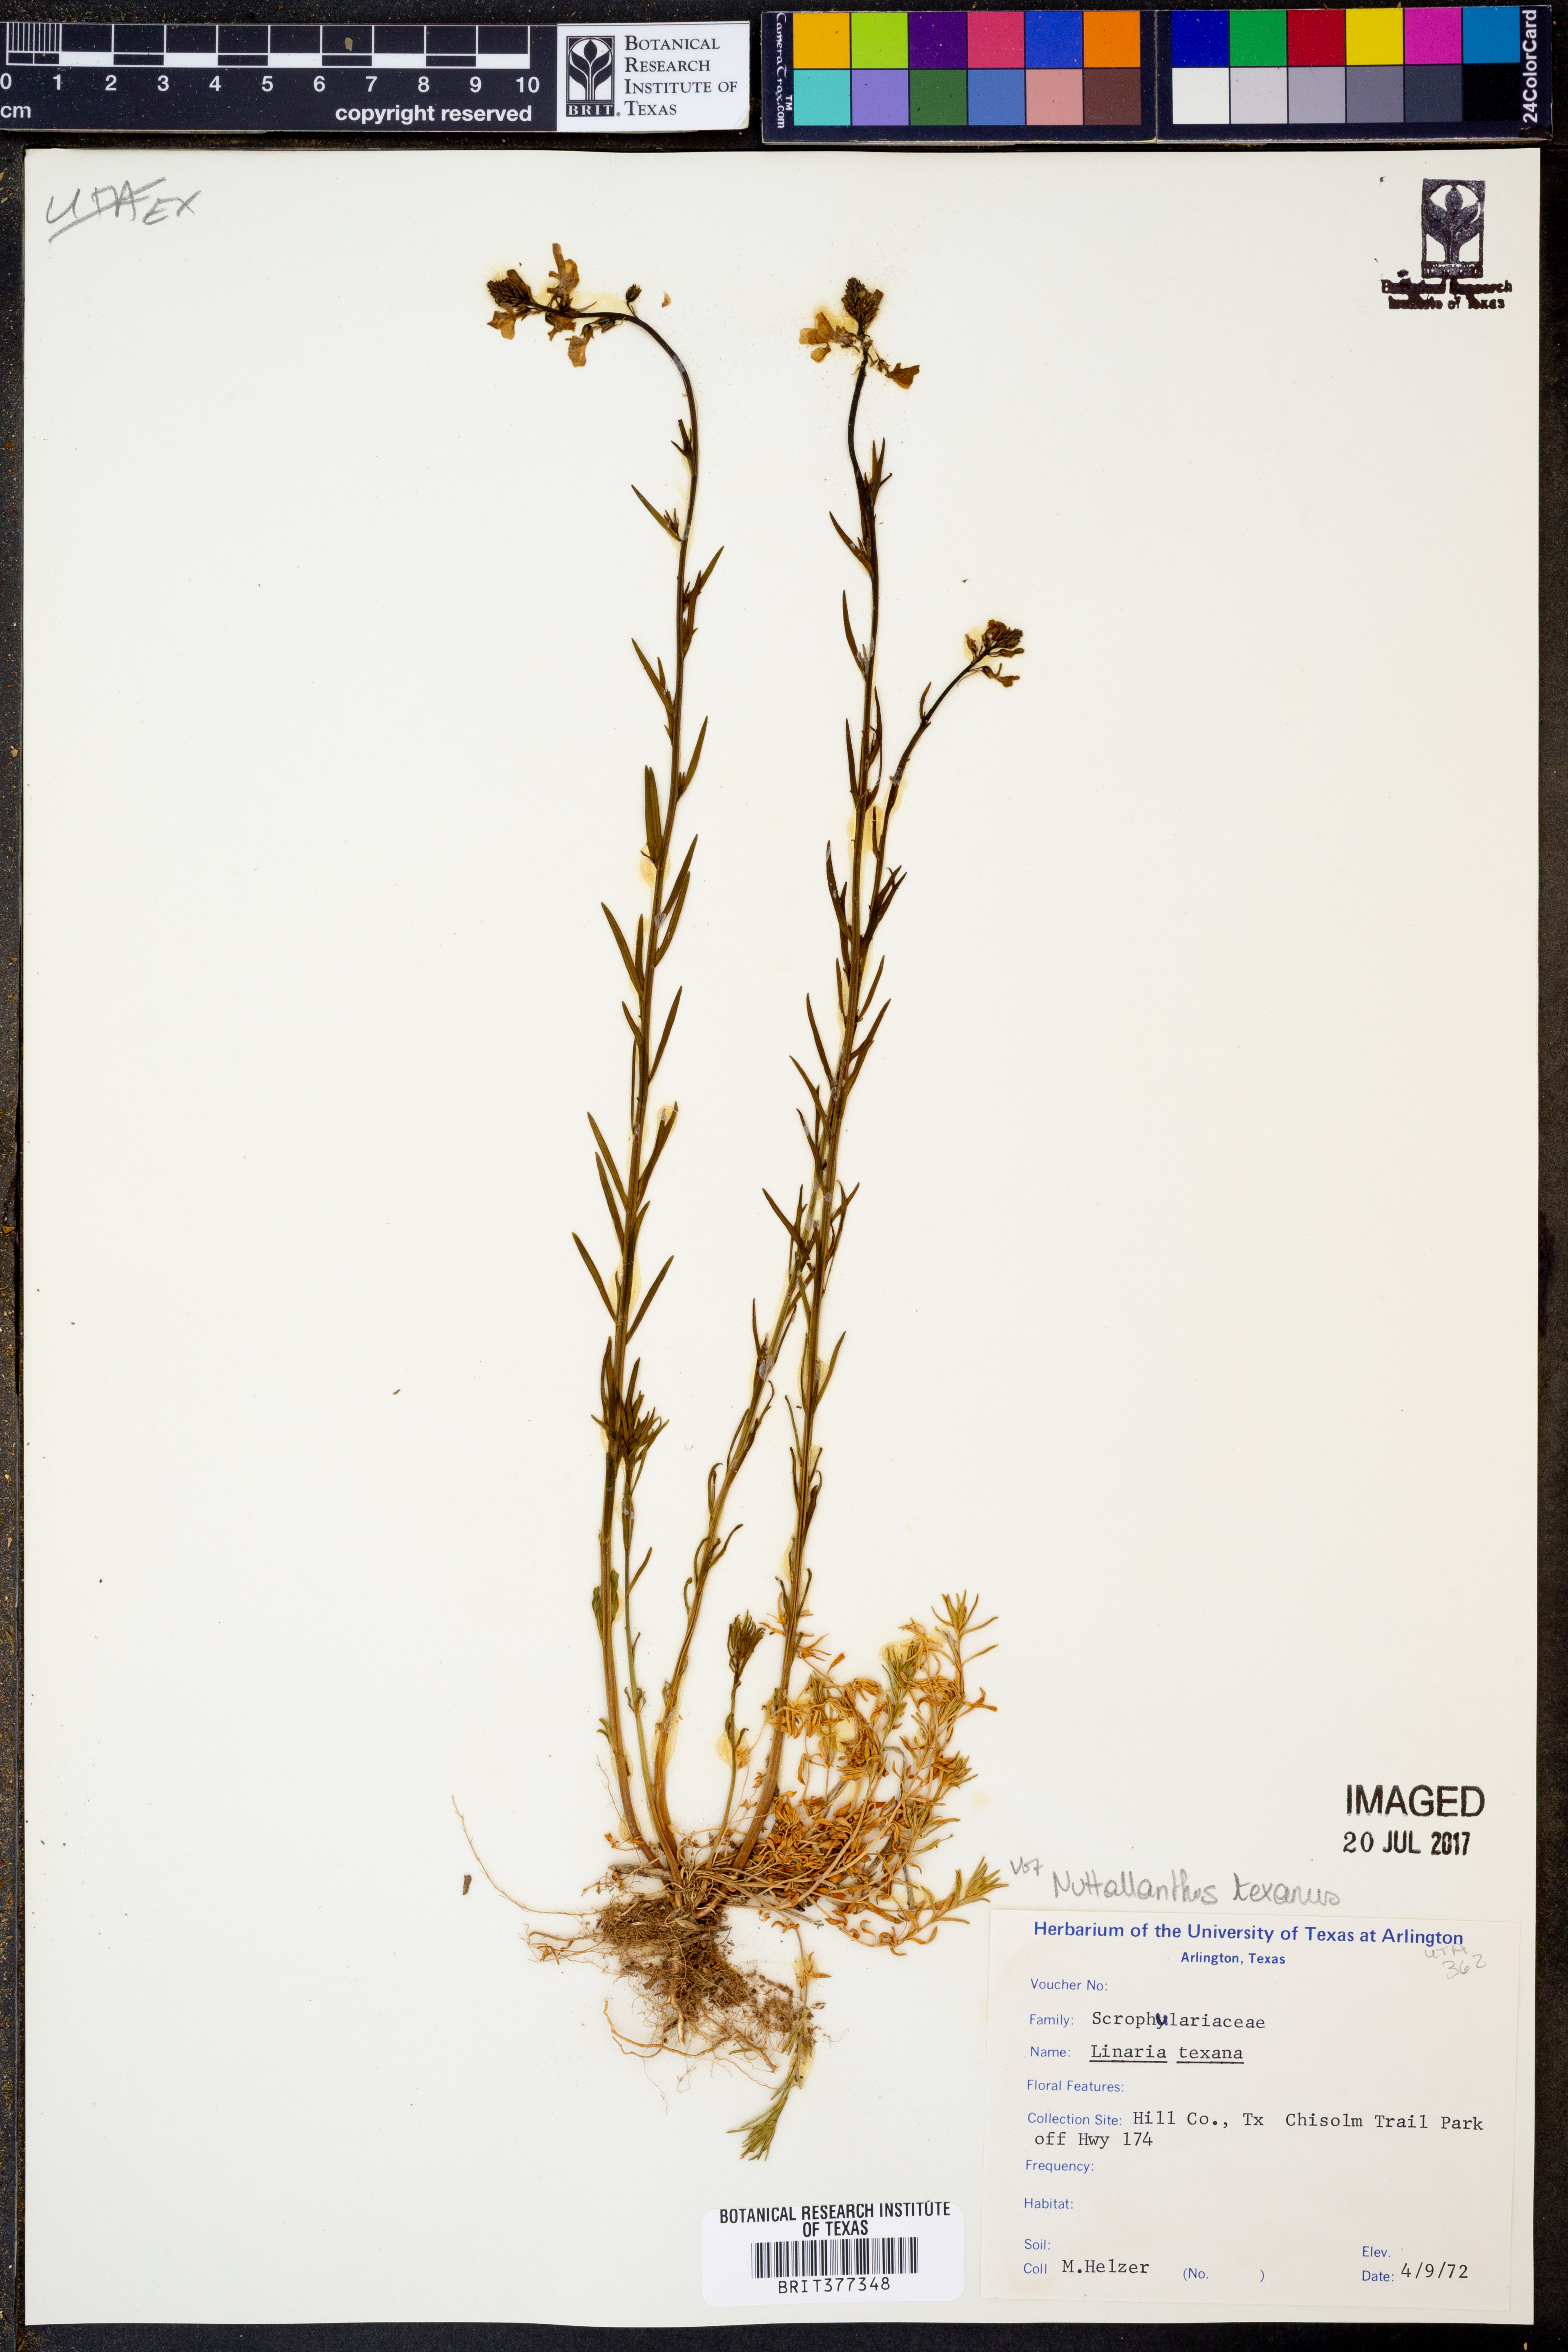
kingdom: Plantae
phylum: Tracheophyta
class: Magnoliopsida
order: Lamiales
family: Plantaginaceae
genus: Nuttallanthus
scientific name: Nuttallanthus texanus
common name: Texas toadflax
